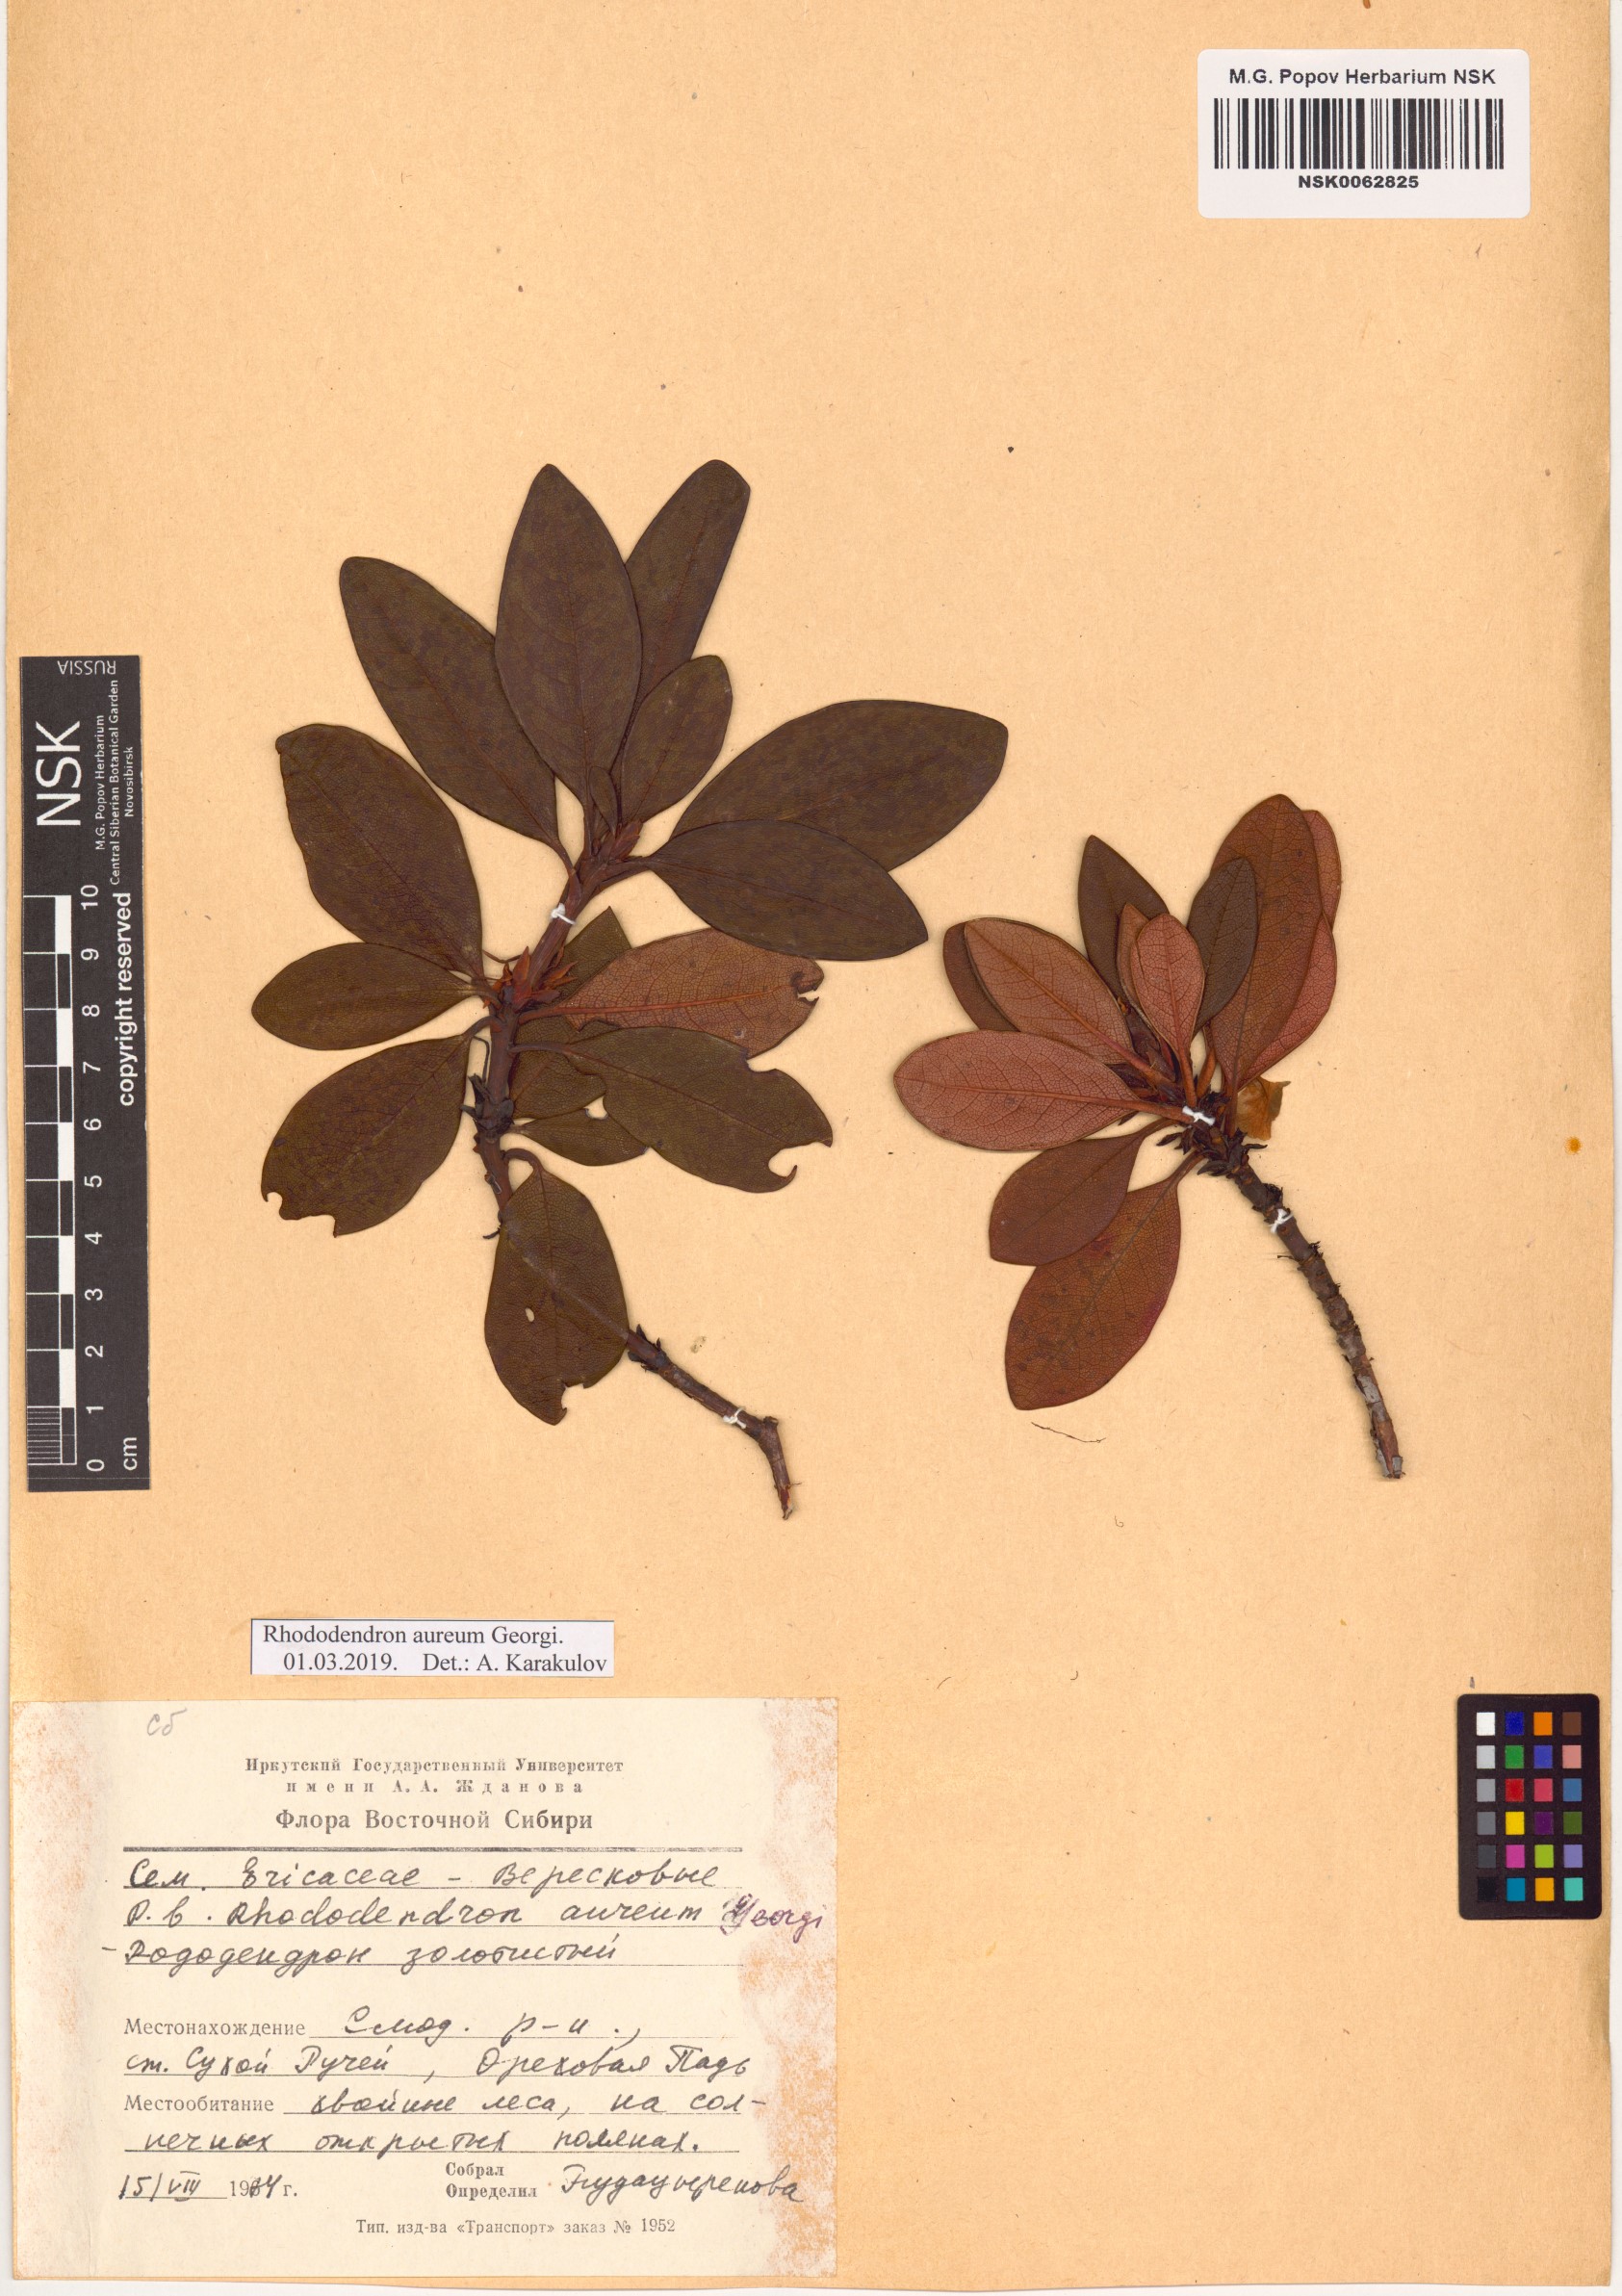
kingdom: Plantae
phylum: Tracheophyta
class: Magnoliopsida
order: Ericales
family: Ericaceae
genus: Rhododendron
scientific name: Rhododendron aureum
